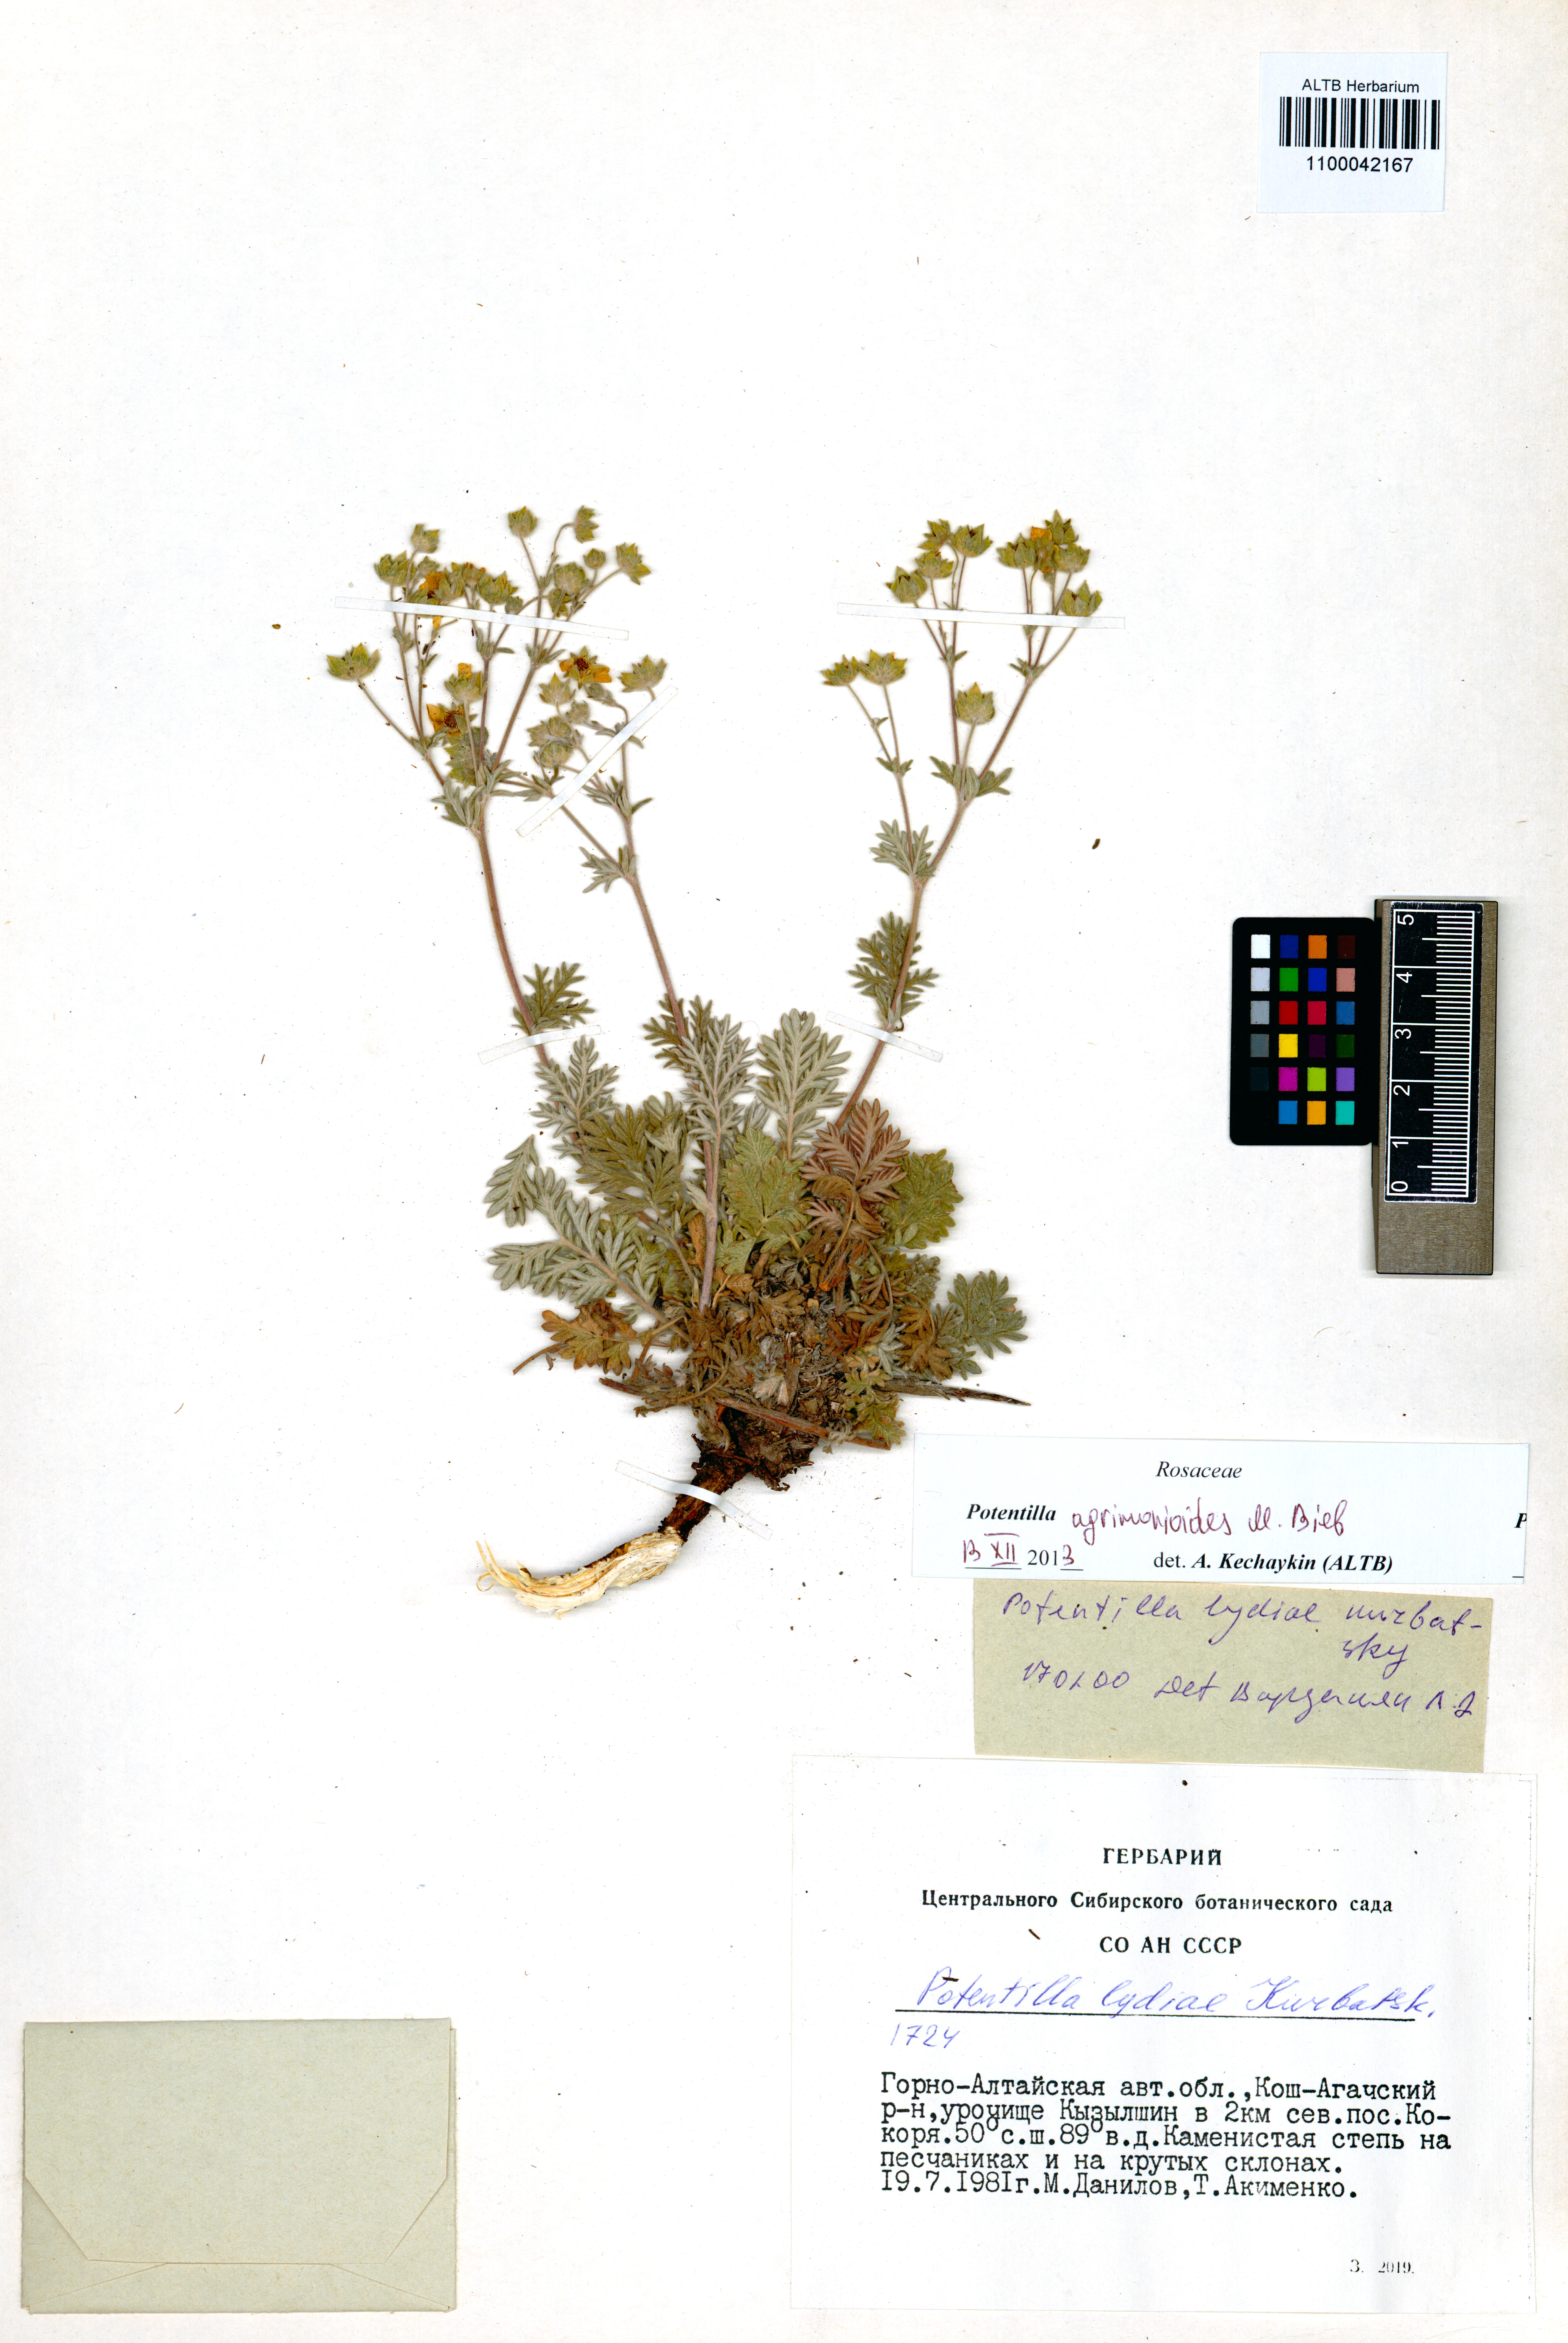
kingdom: Plantae
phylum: Tracheophyta
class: Magnoliopsida
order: Rosales
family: Rosaceae
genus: Potentilla
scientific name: Potentilla agrimonioides
